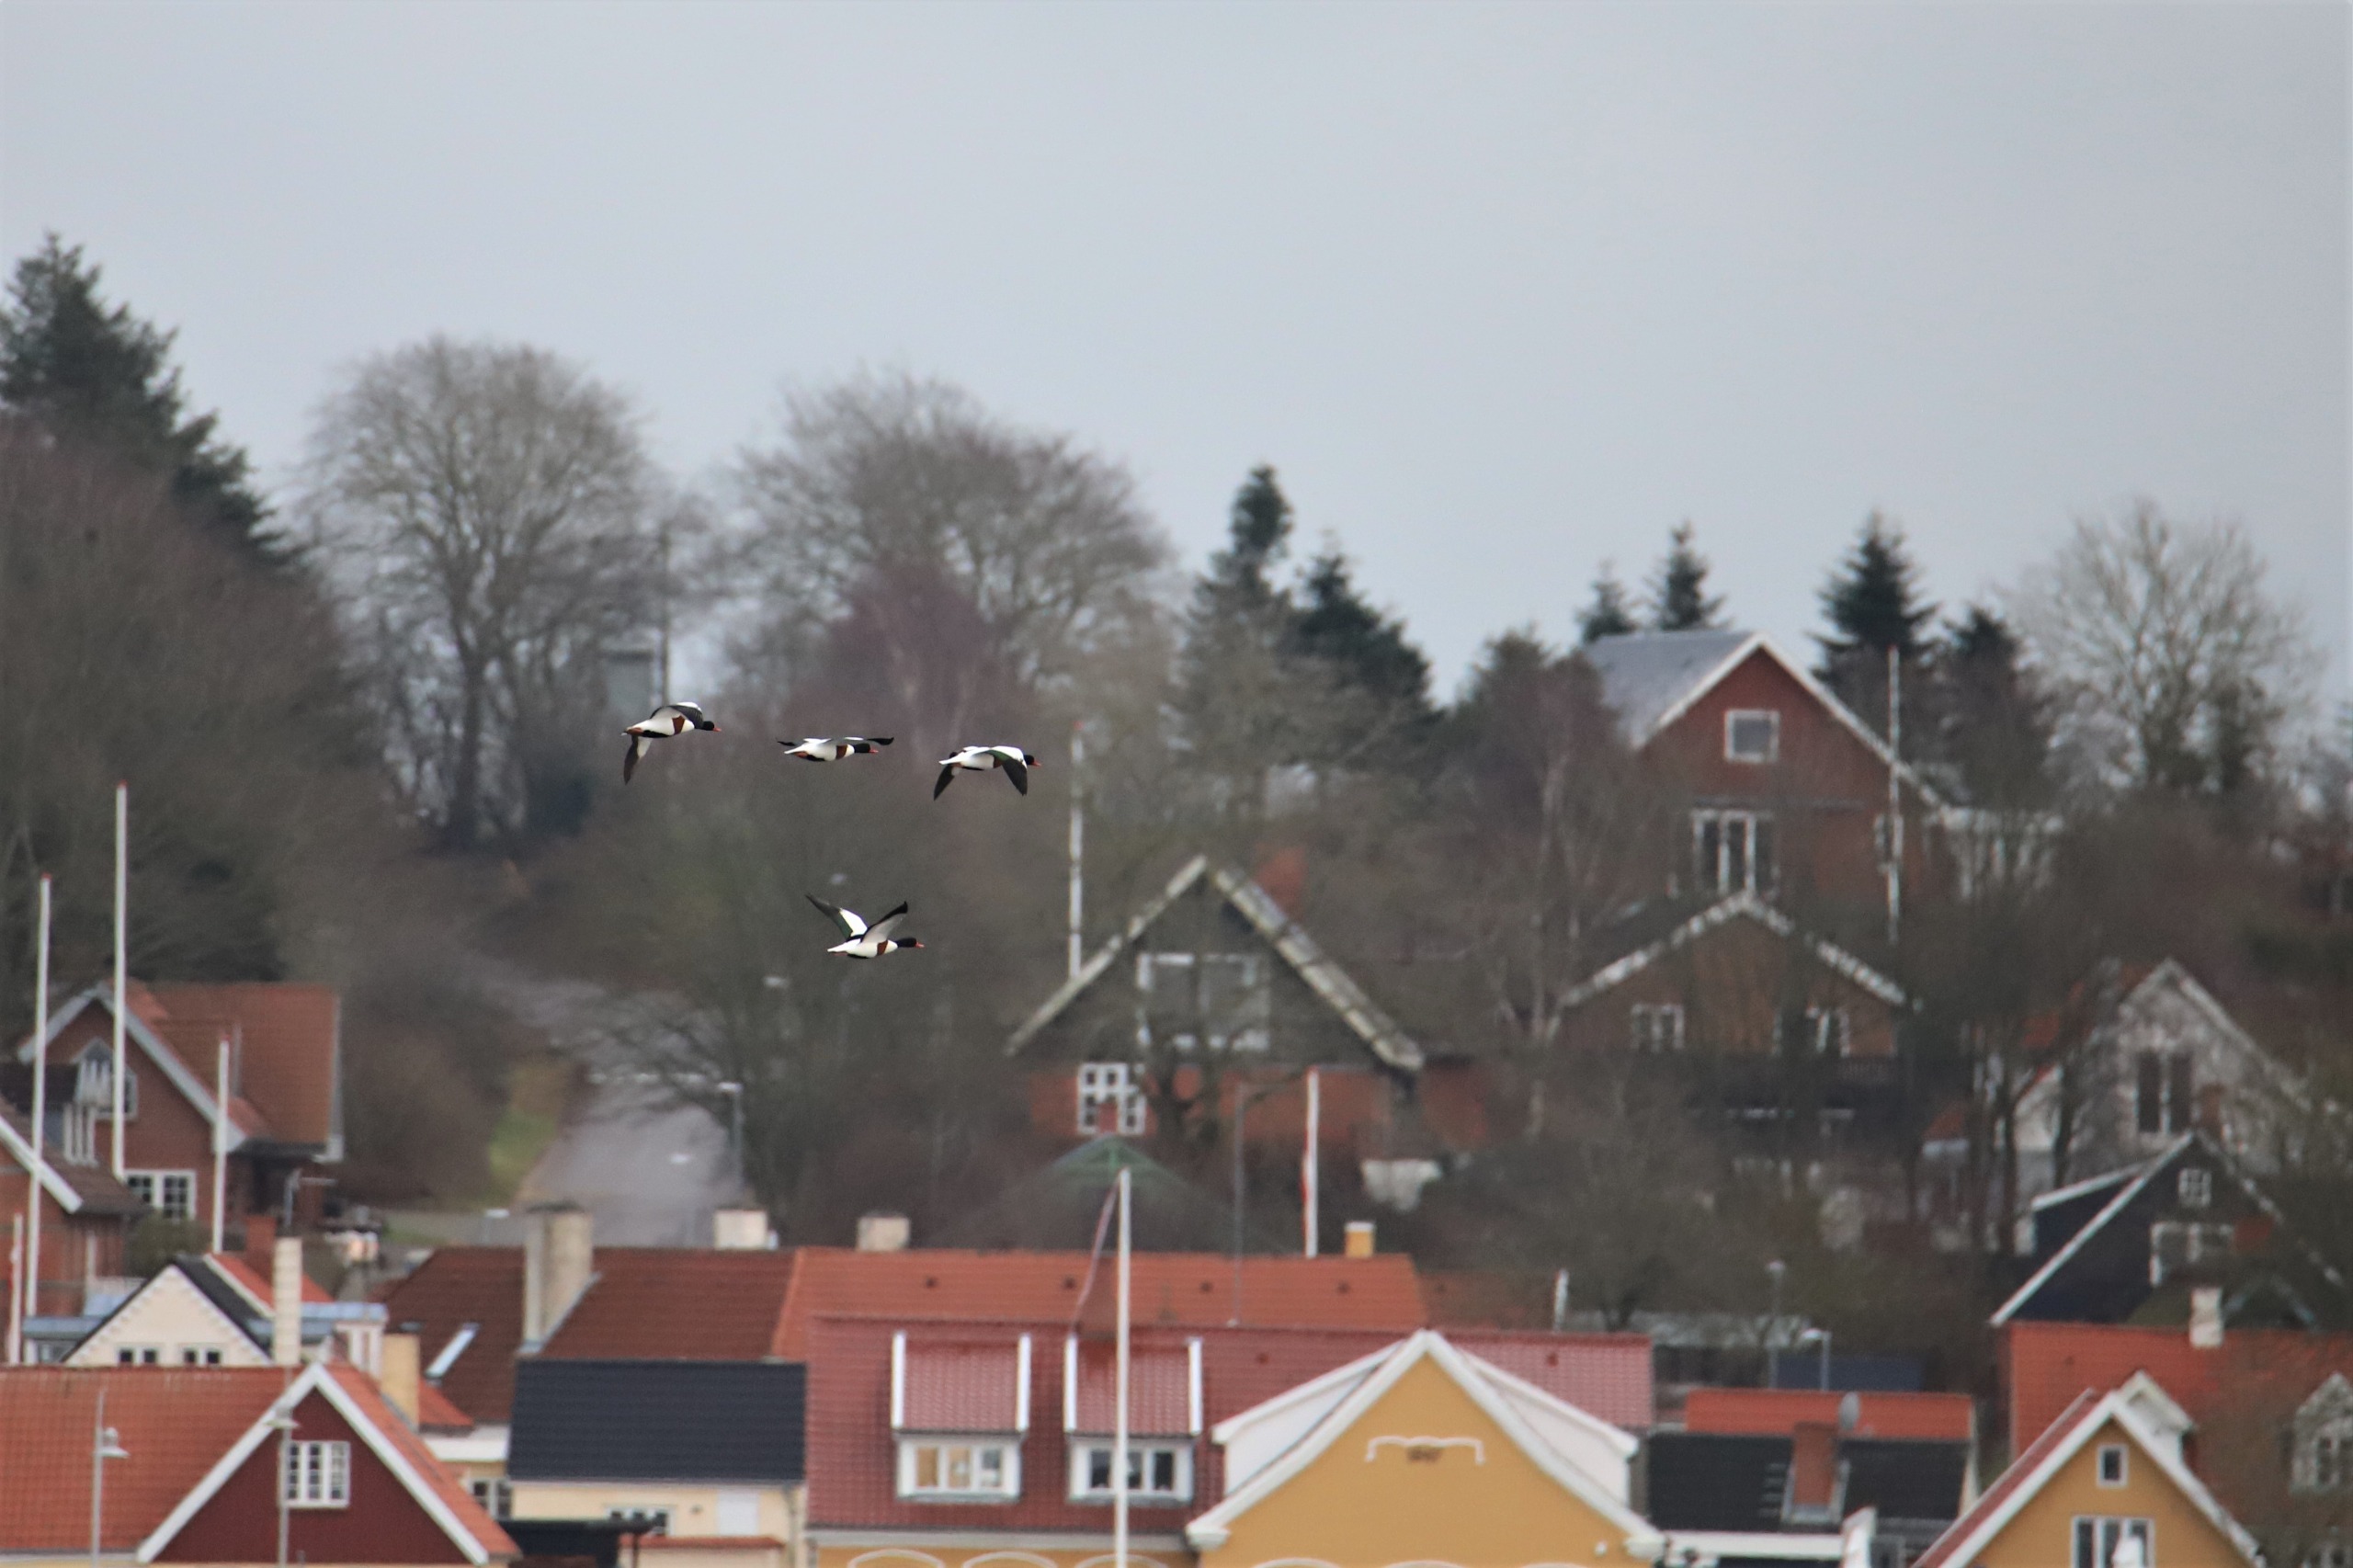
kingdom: Animalia
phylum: Chordata
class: Aves
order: Anseriformes
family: Anatidae
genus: Tadorna
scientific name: Tadorna tadorna
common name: Gravand
